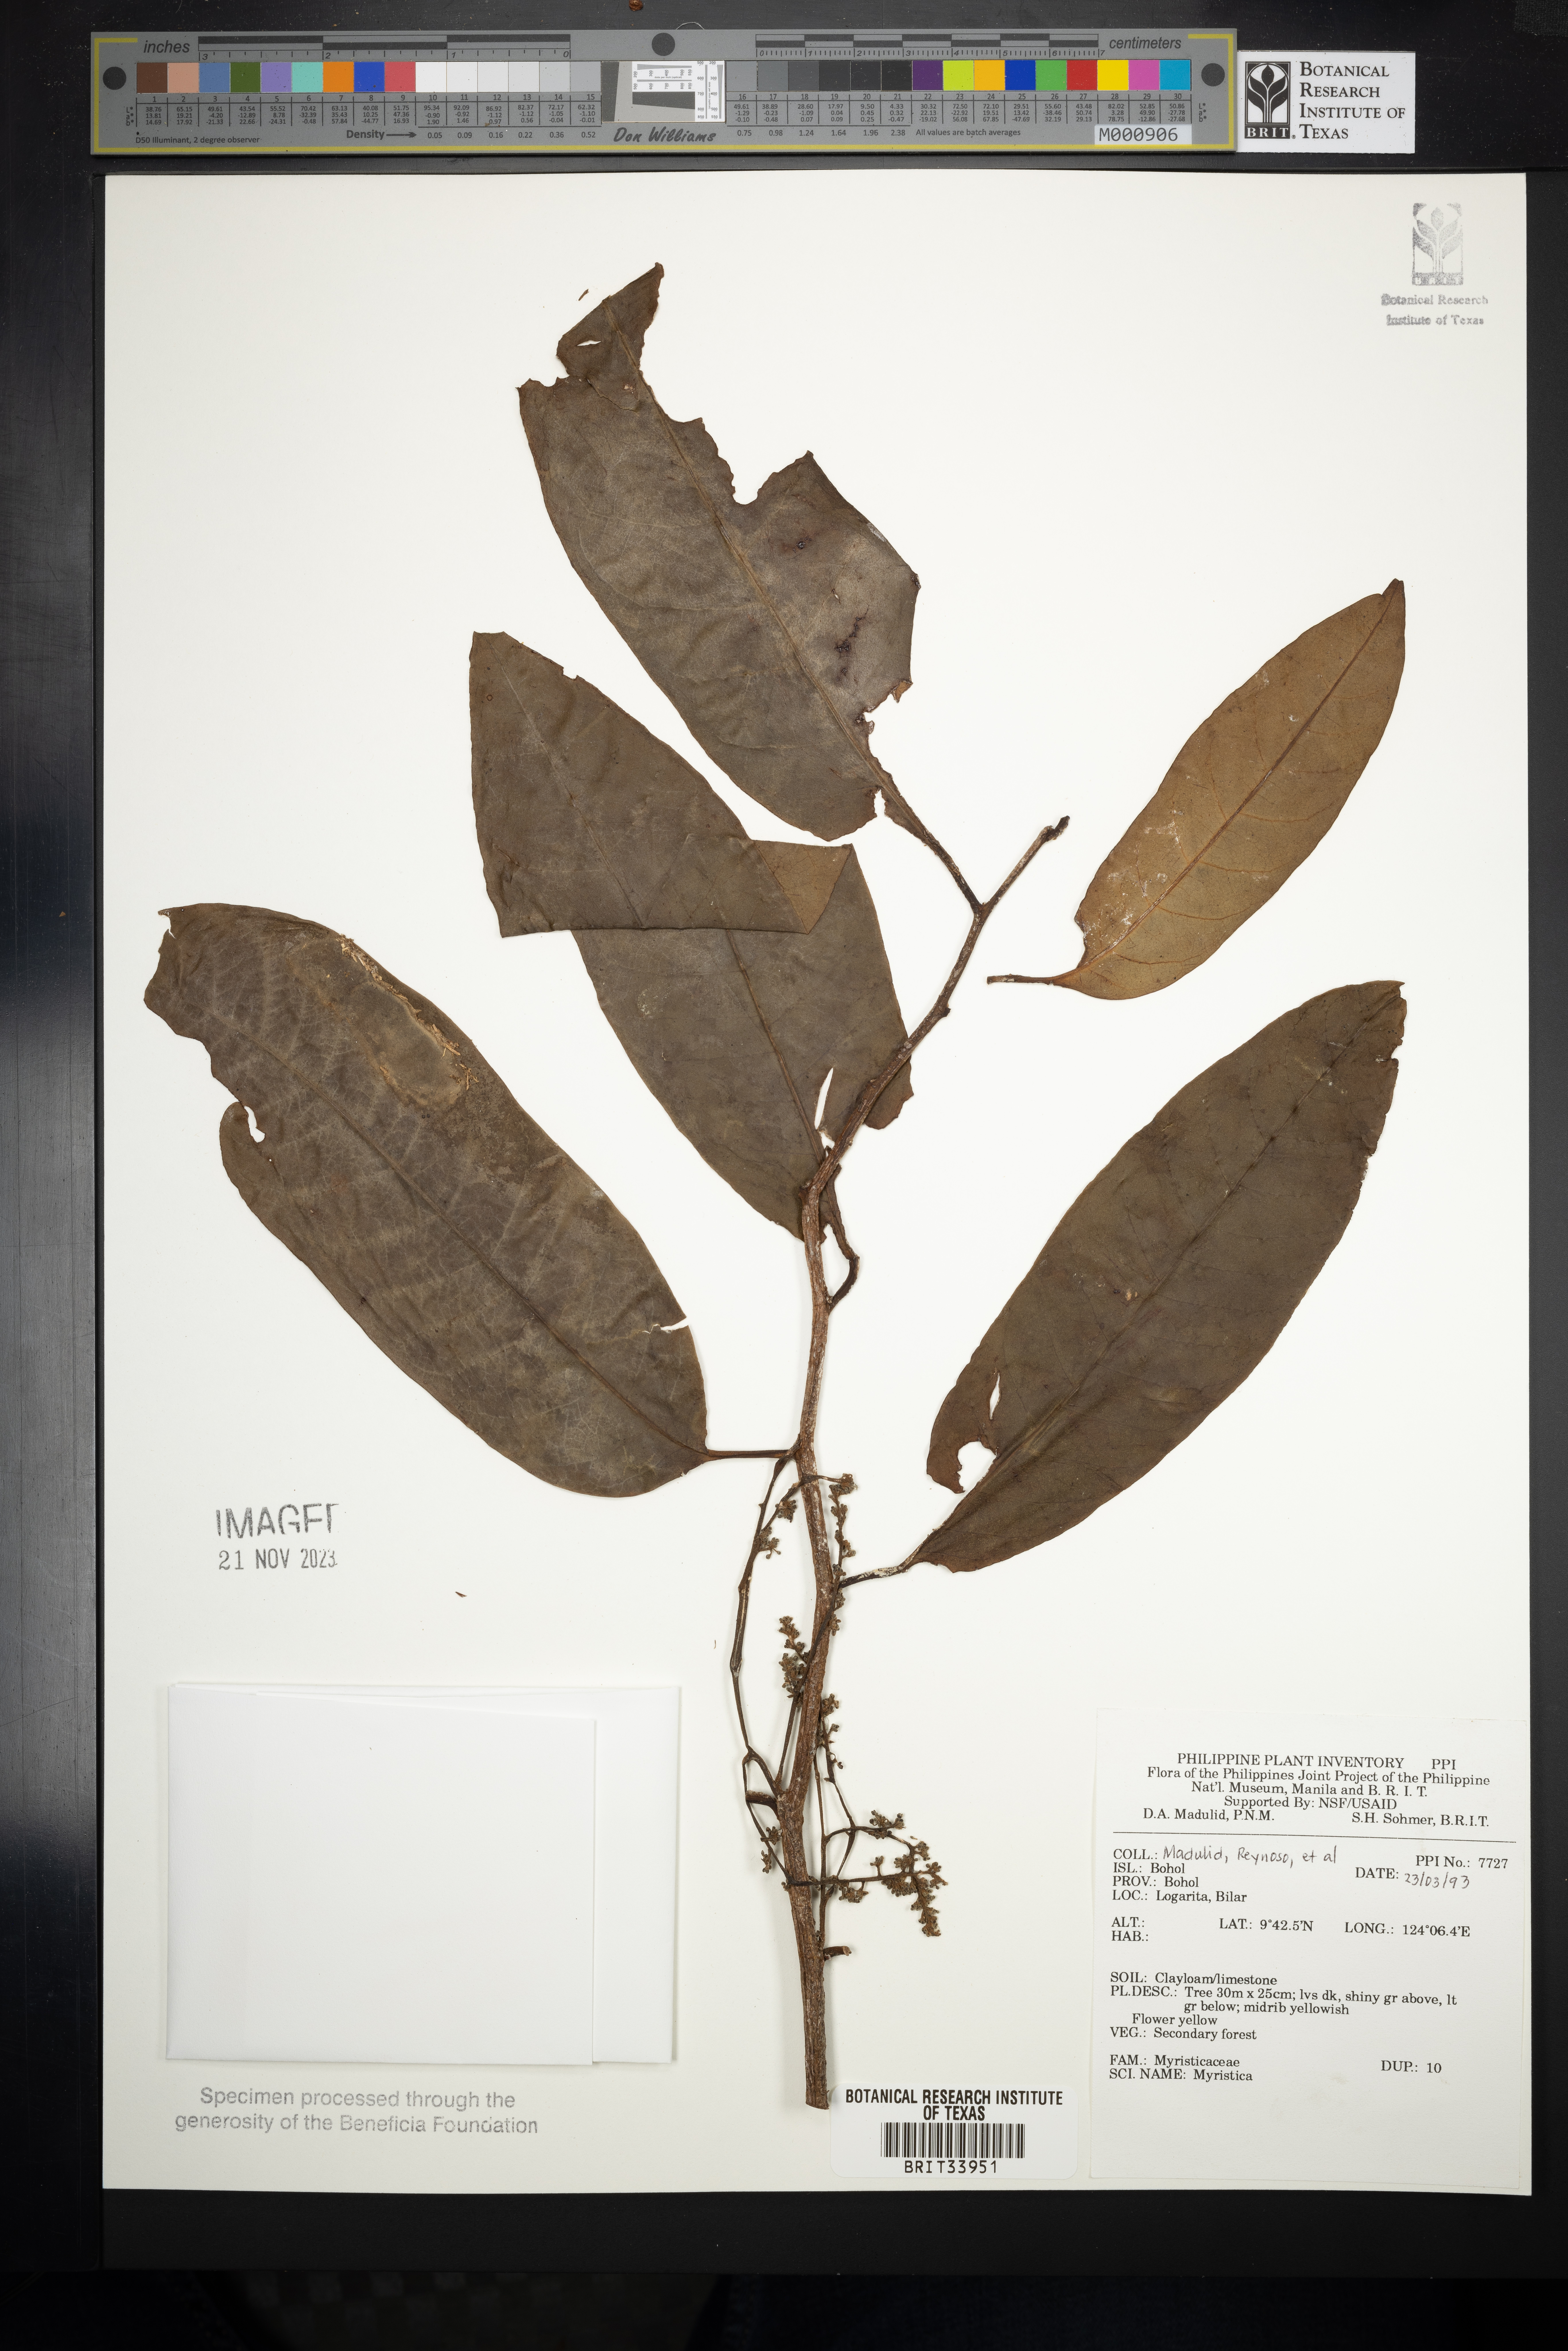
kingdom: Plantae
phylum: Tracheophyta
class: Magnoliopsida
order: Magnoliales
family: Myristicaceae
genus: Myristica
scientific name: Myristica
